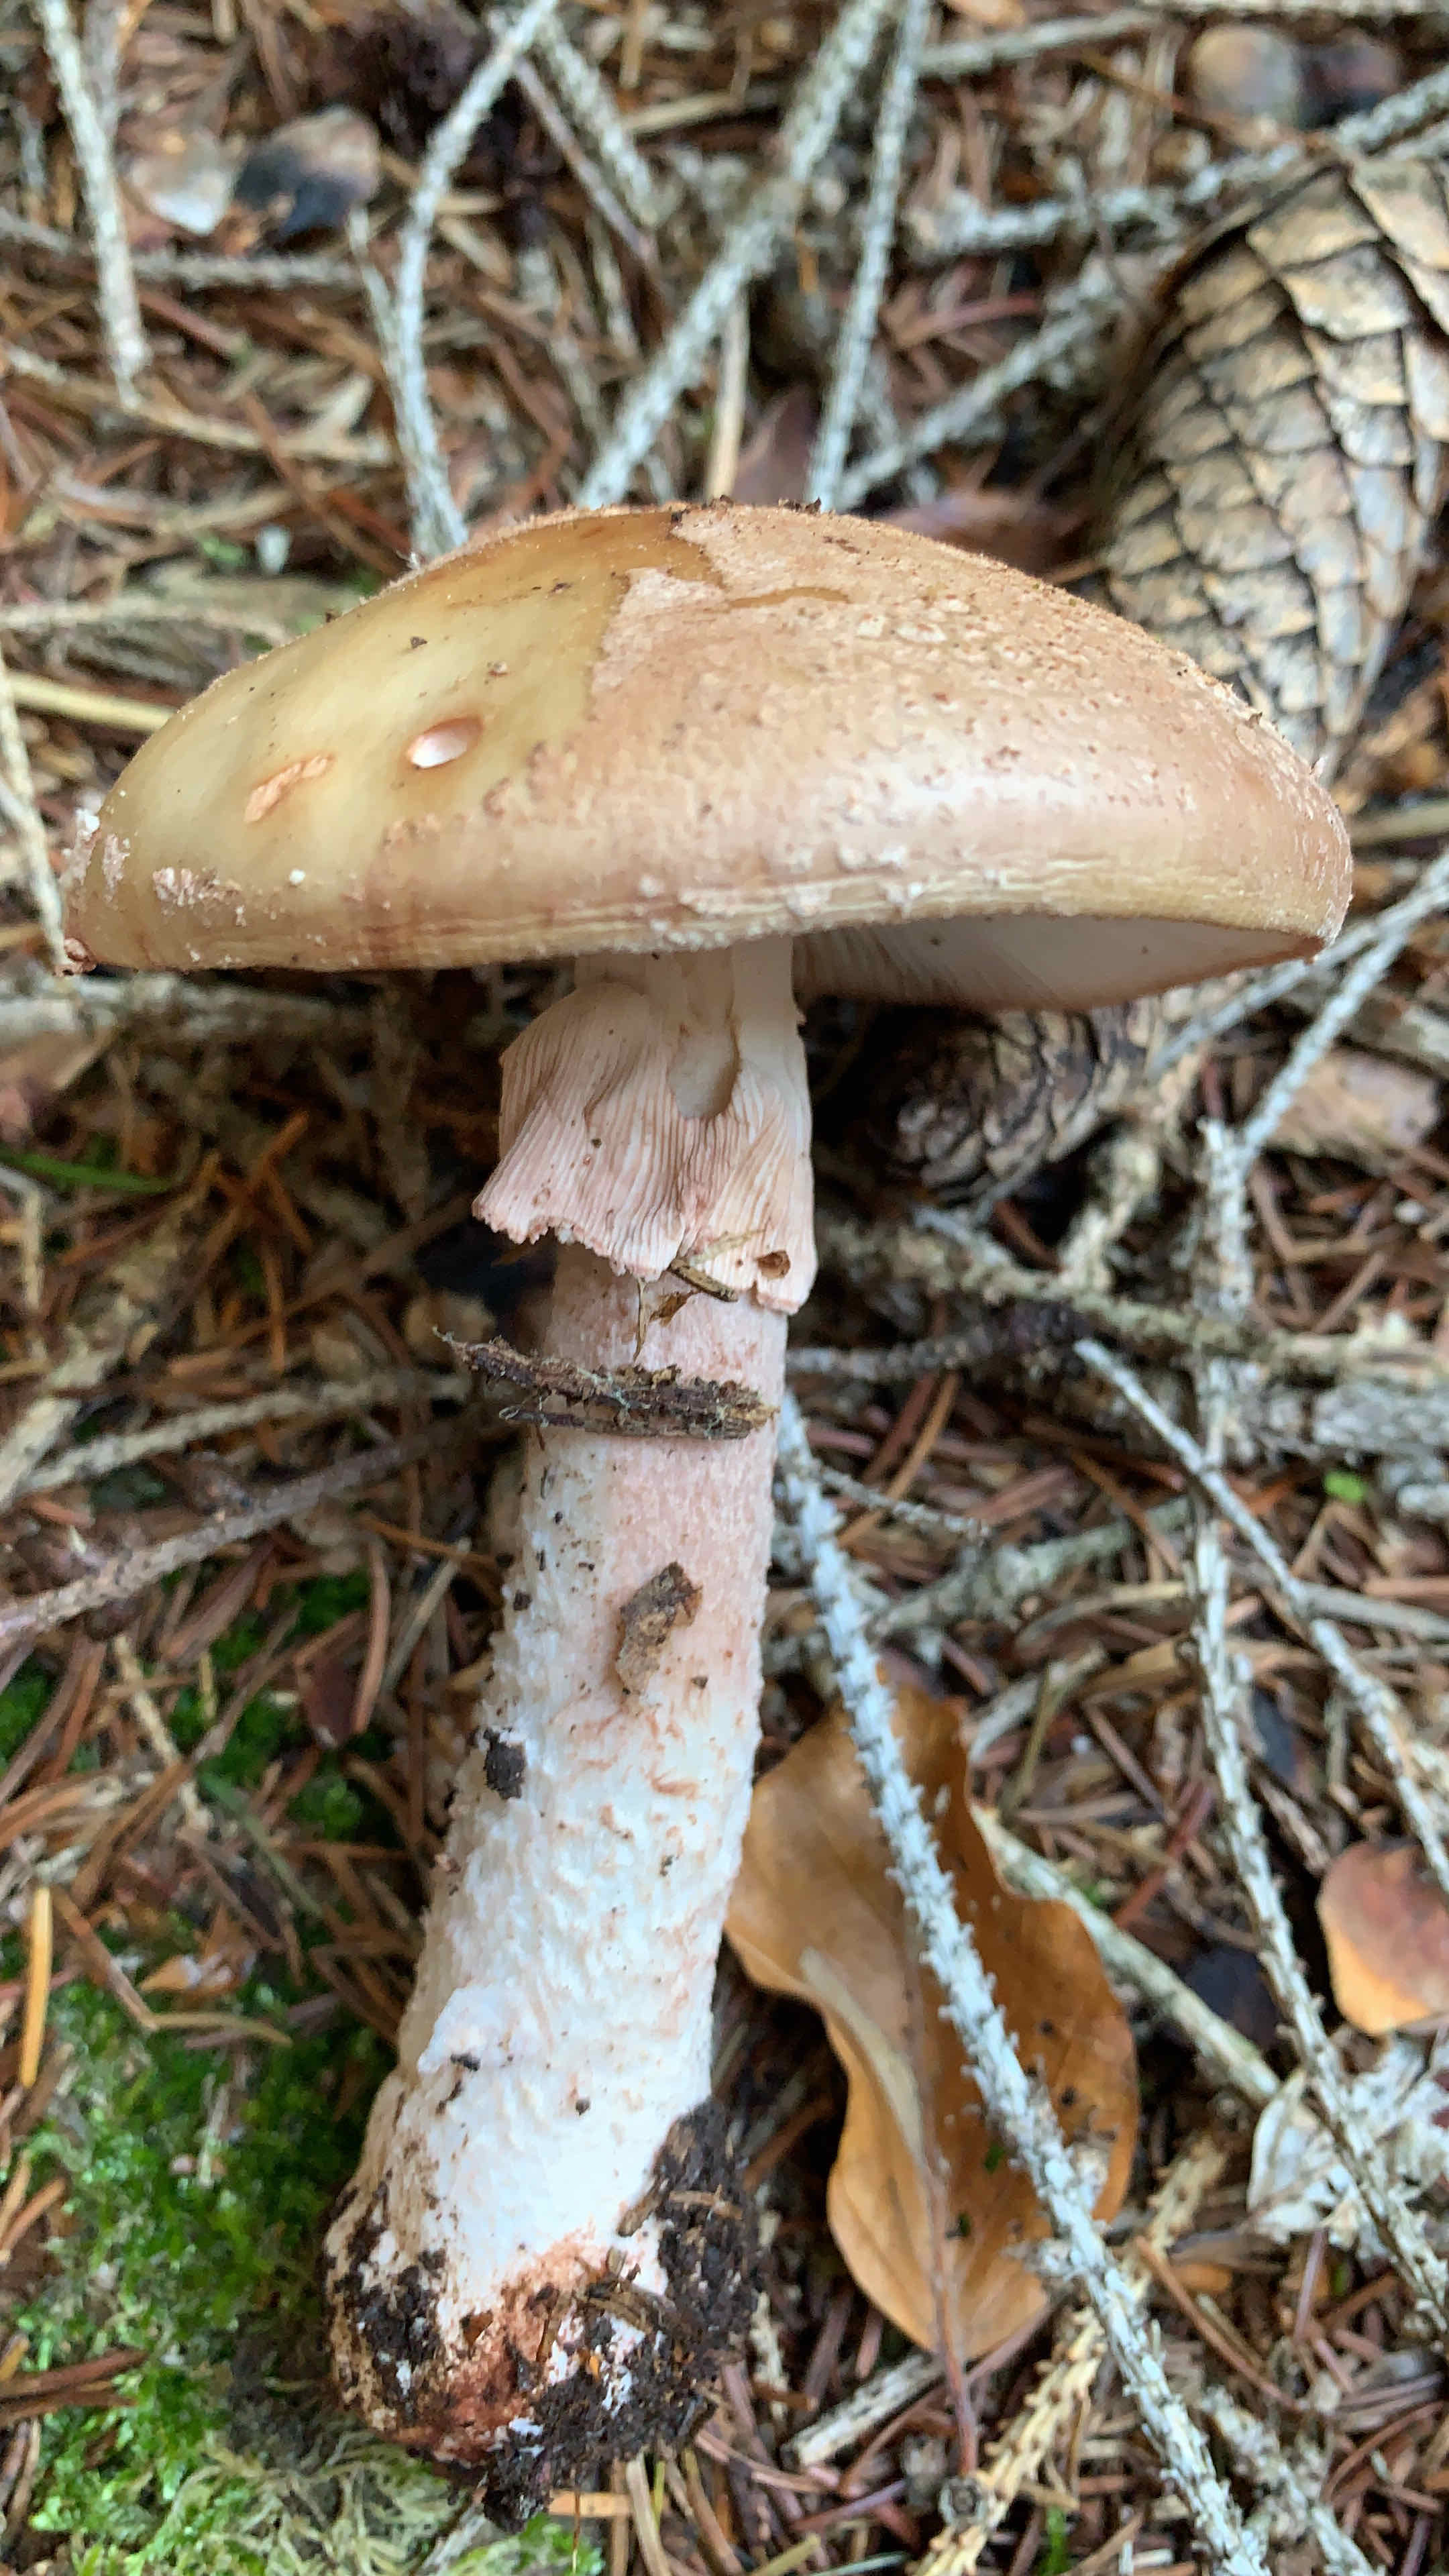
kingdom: Fungi
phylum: Basidiomycota
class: Agaricomycetes
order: Agaricales
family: Amanitaceae
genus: Amanita
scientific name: Amanita rubescens
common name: rødmende fluesvamp
